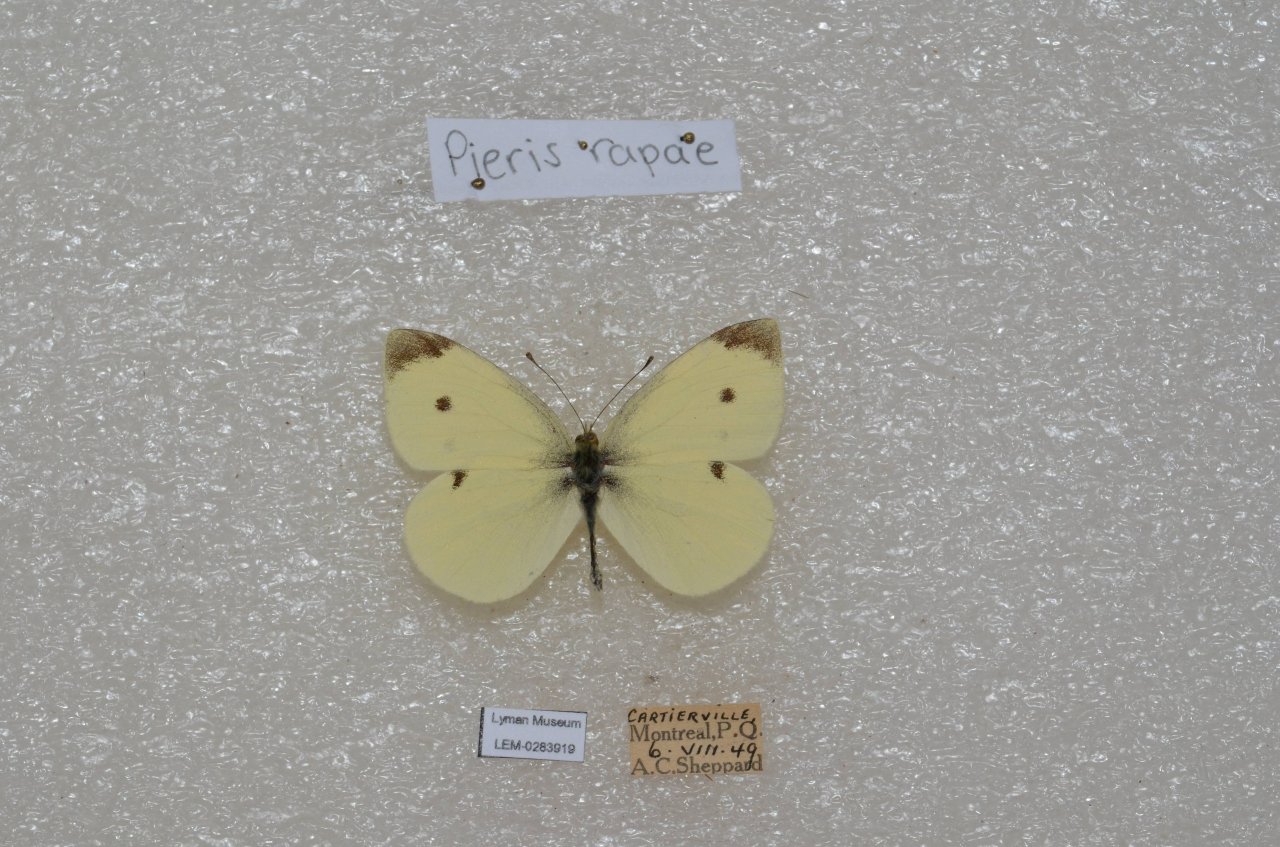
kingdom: Animalia
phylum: Arthropoda
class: Insecta
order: Lepidoptera
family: Pieridae
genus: Pieris
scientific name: Pieris rapae
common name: Cabbage White
